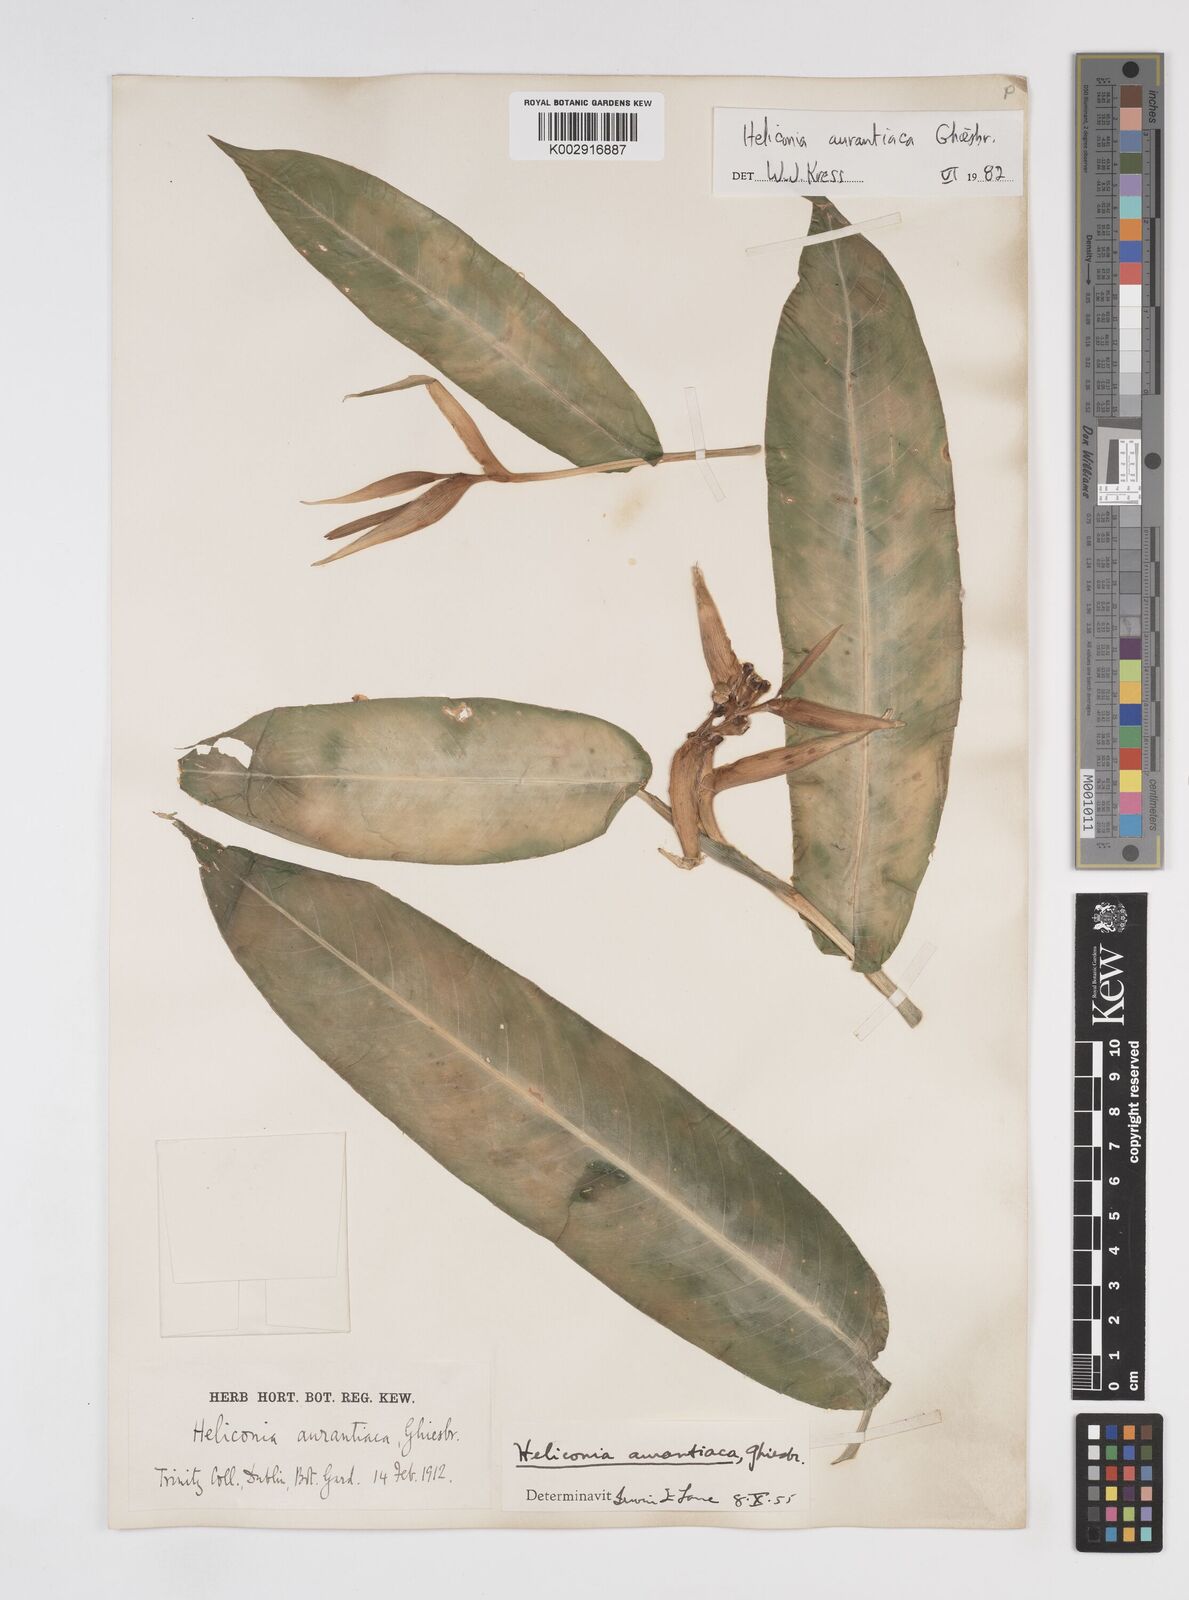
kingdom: Plantae
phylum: Tracheophyta
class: Liliopsida
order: Zingiberales
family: Heliconiaceae
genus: Heliconia
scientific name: Heliconia aurantiaca
